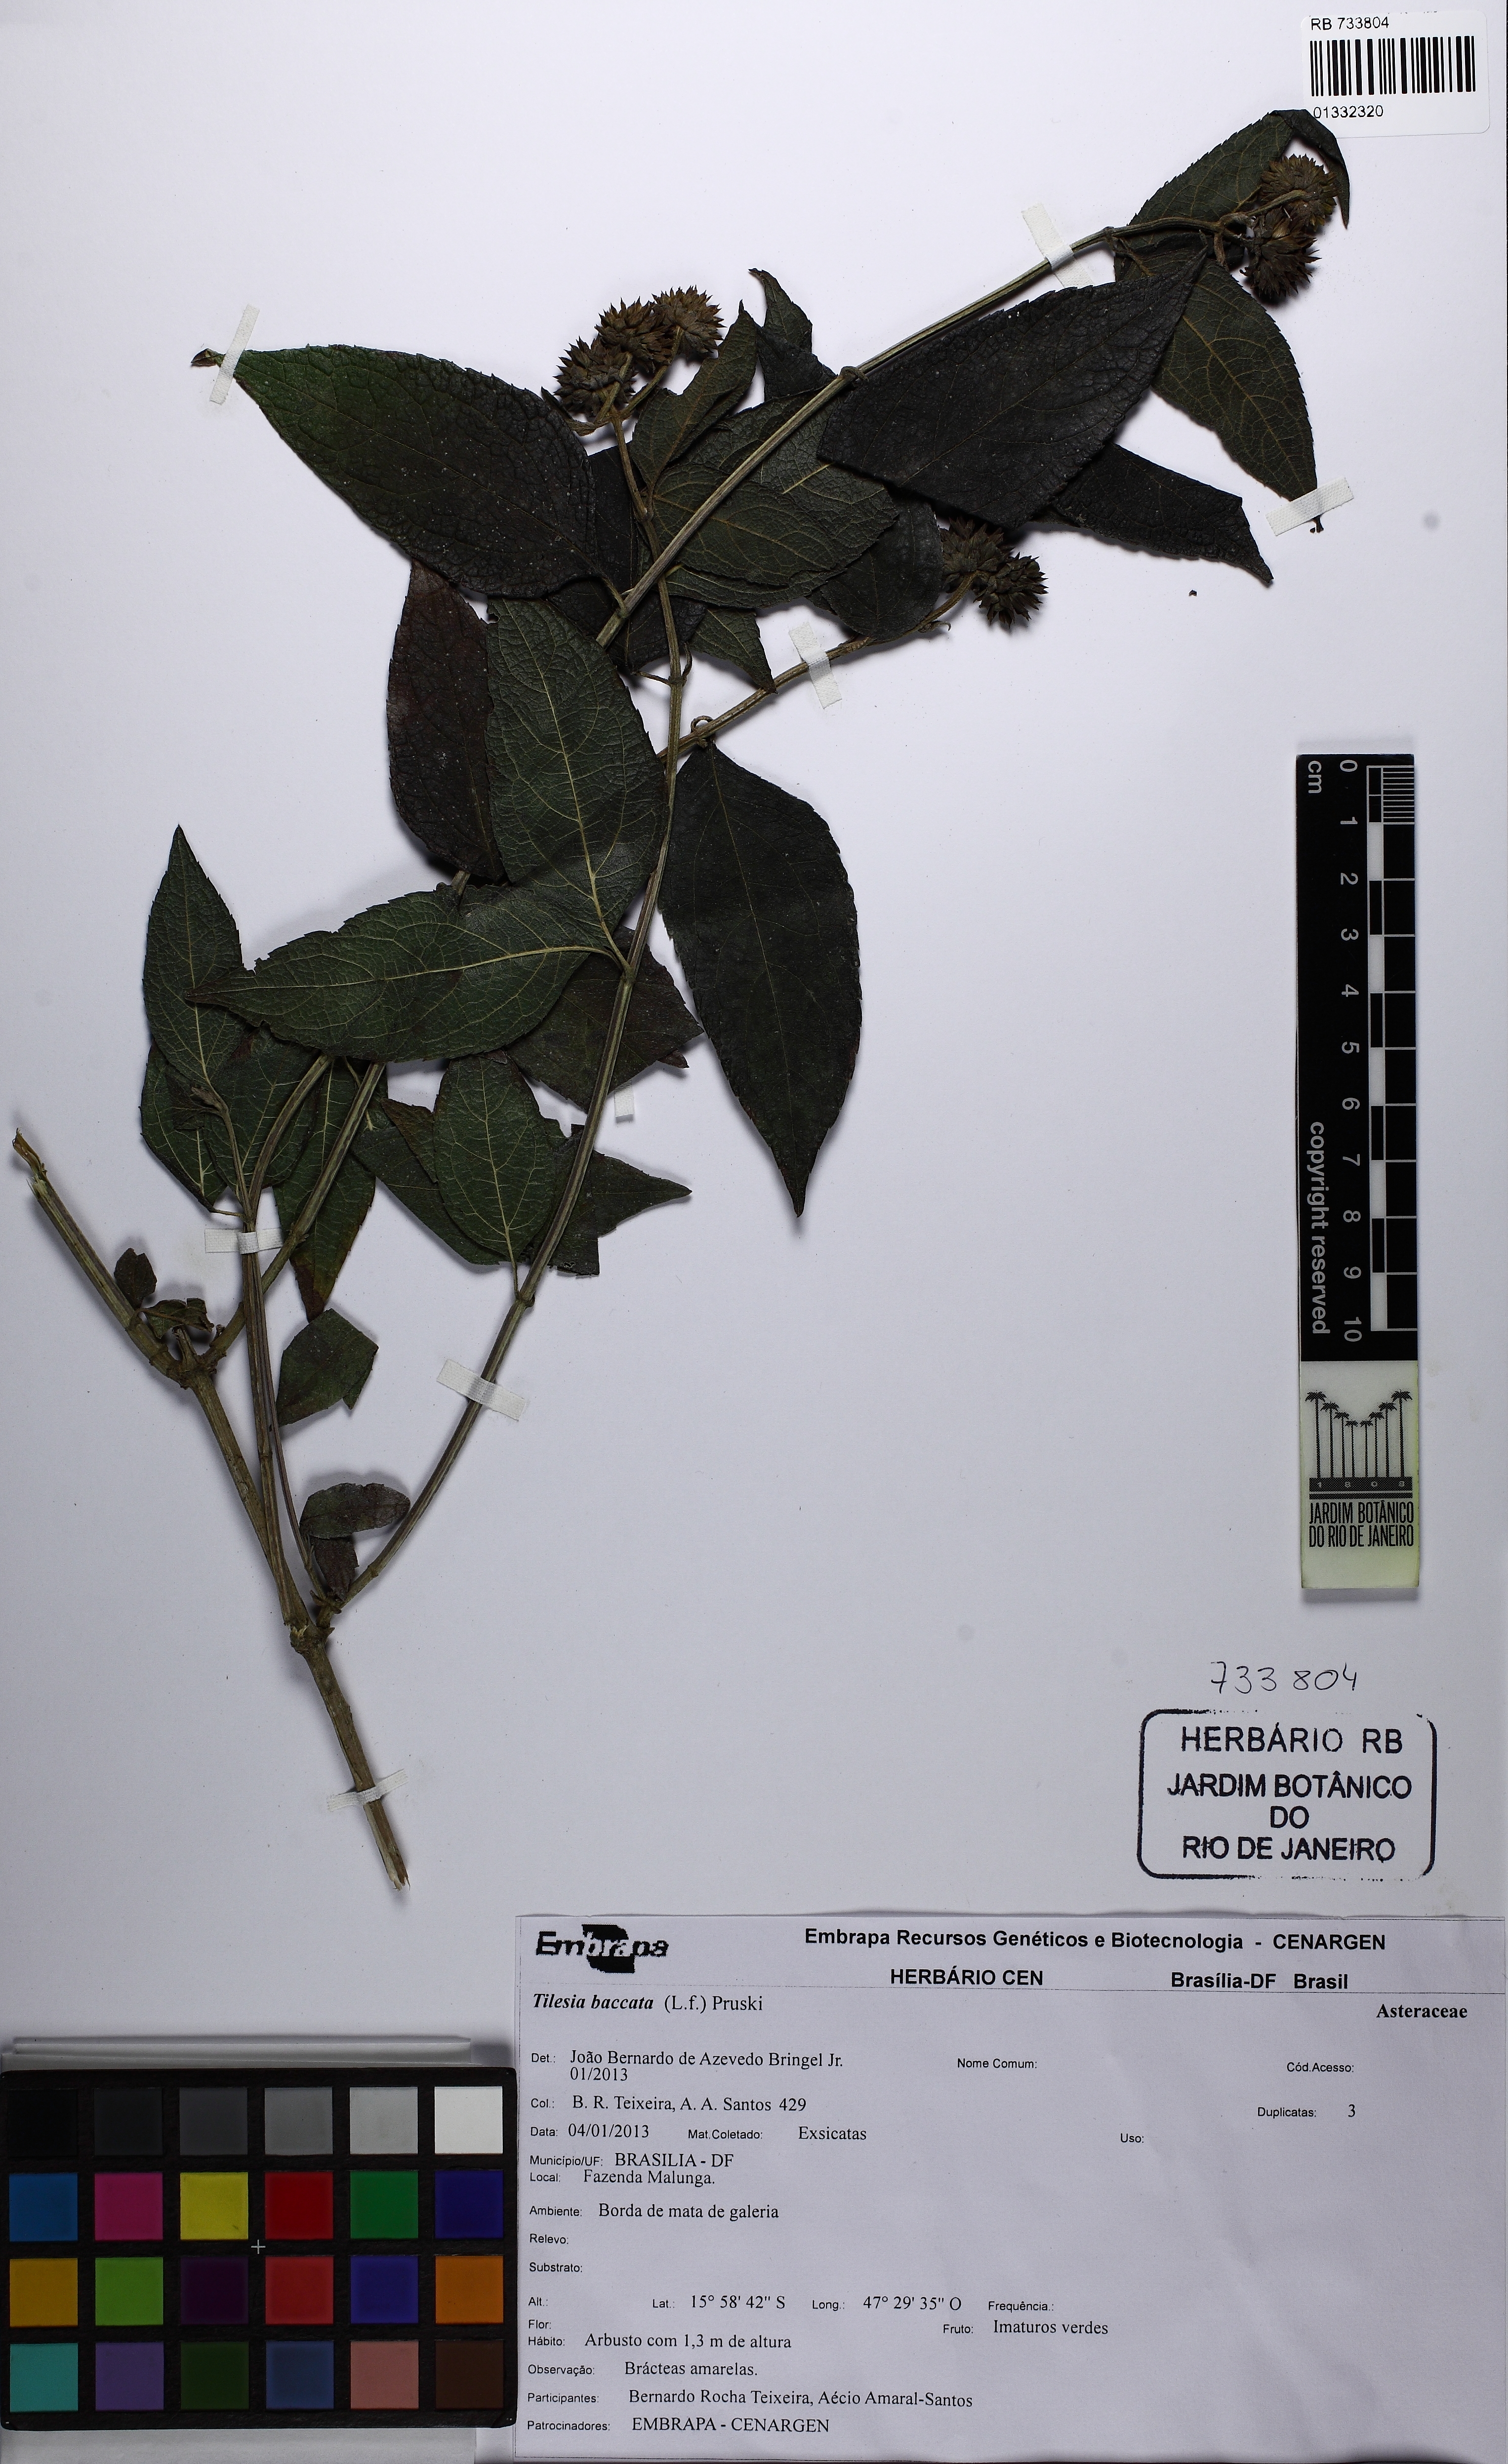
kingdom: Plantae
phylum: Tracheophyta
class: Magnoliopsida
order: Asterales
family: Asteraceae
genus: Tilesia
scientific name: Tilesia baccata
